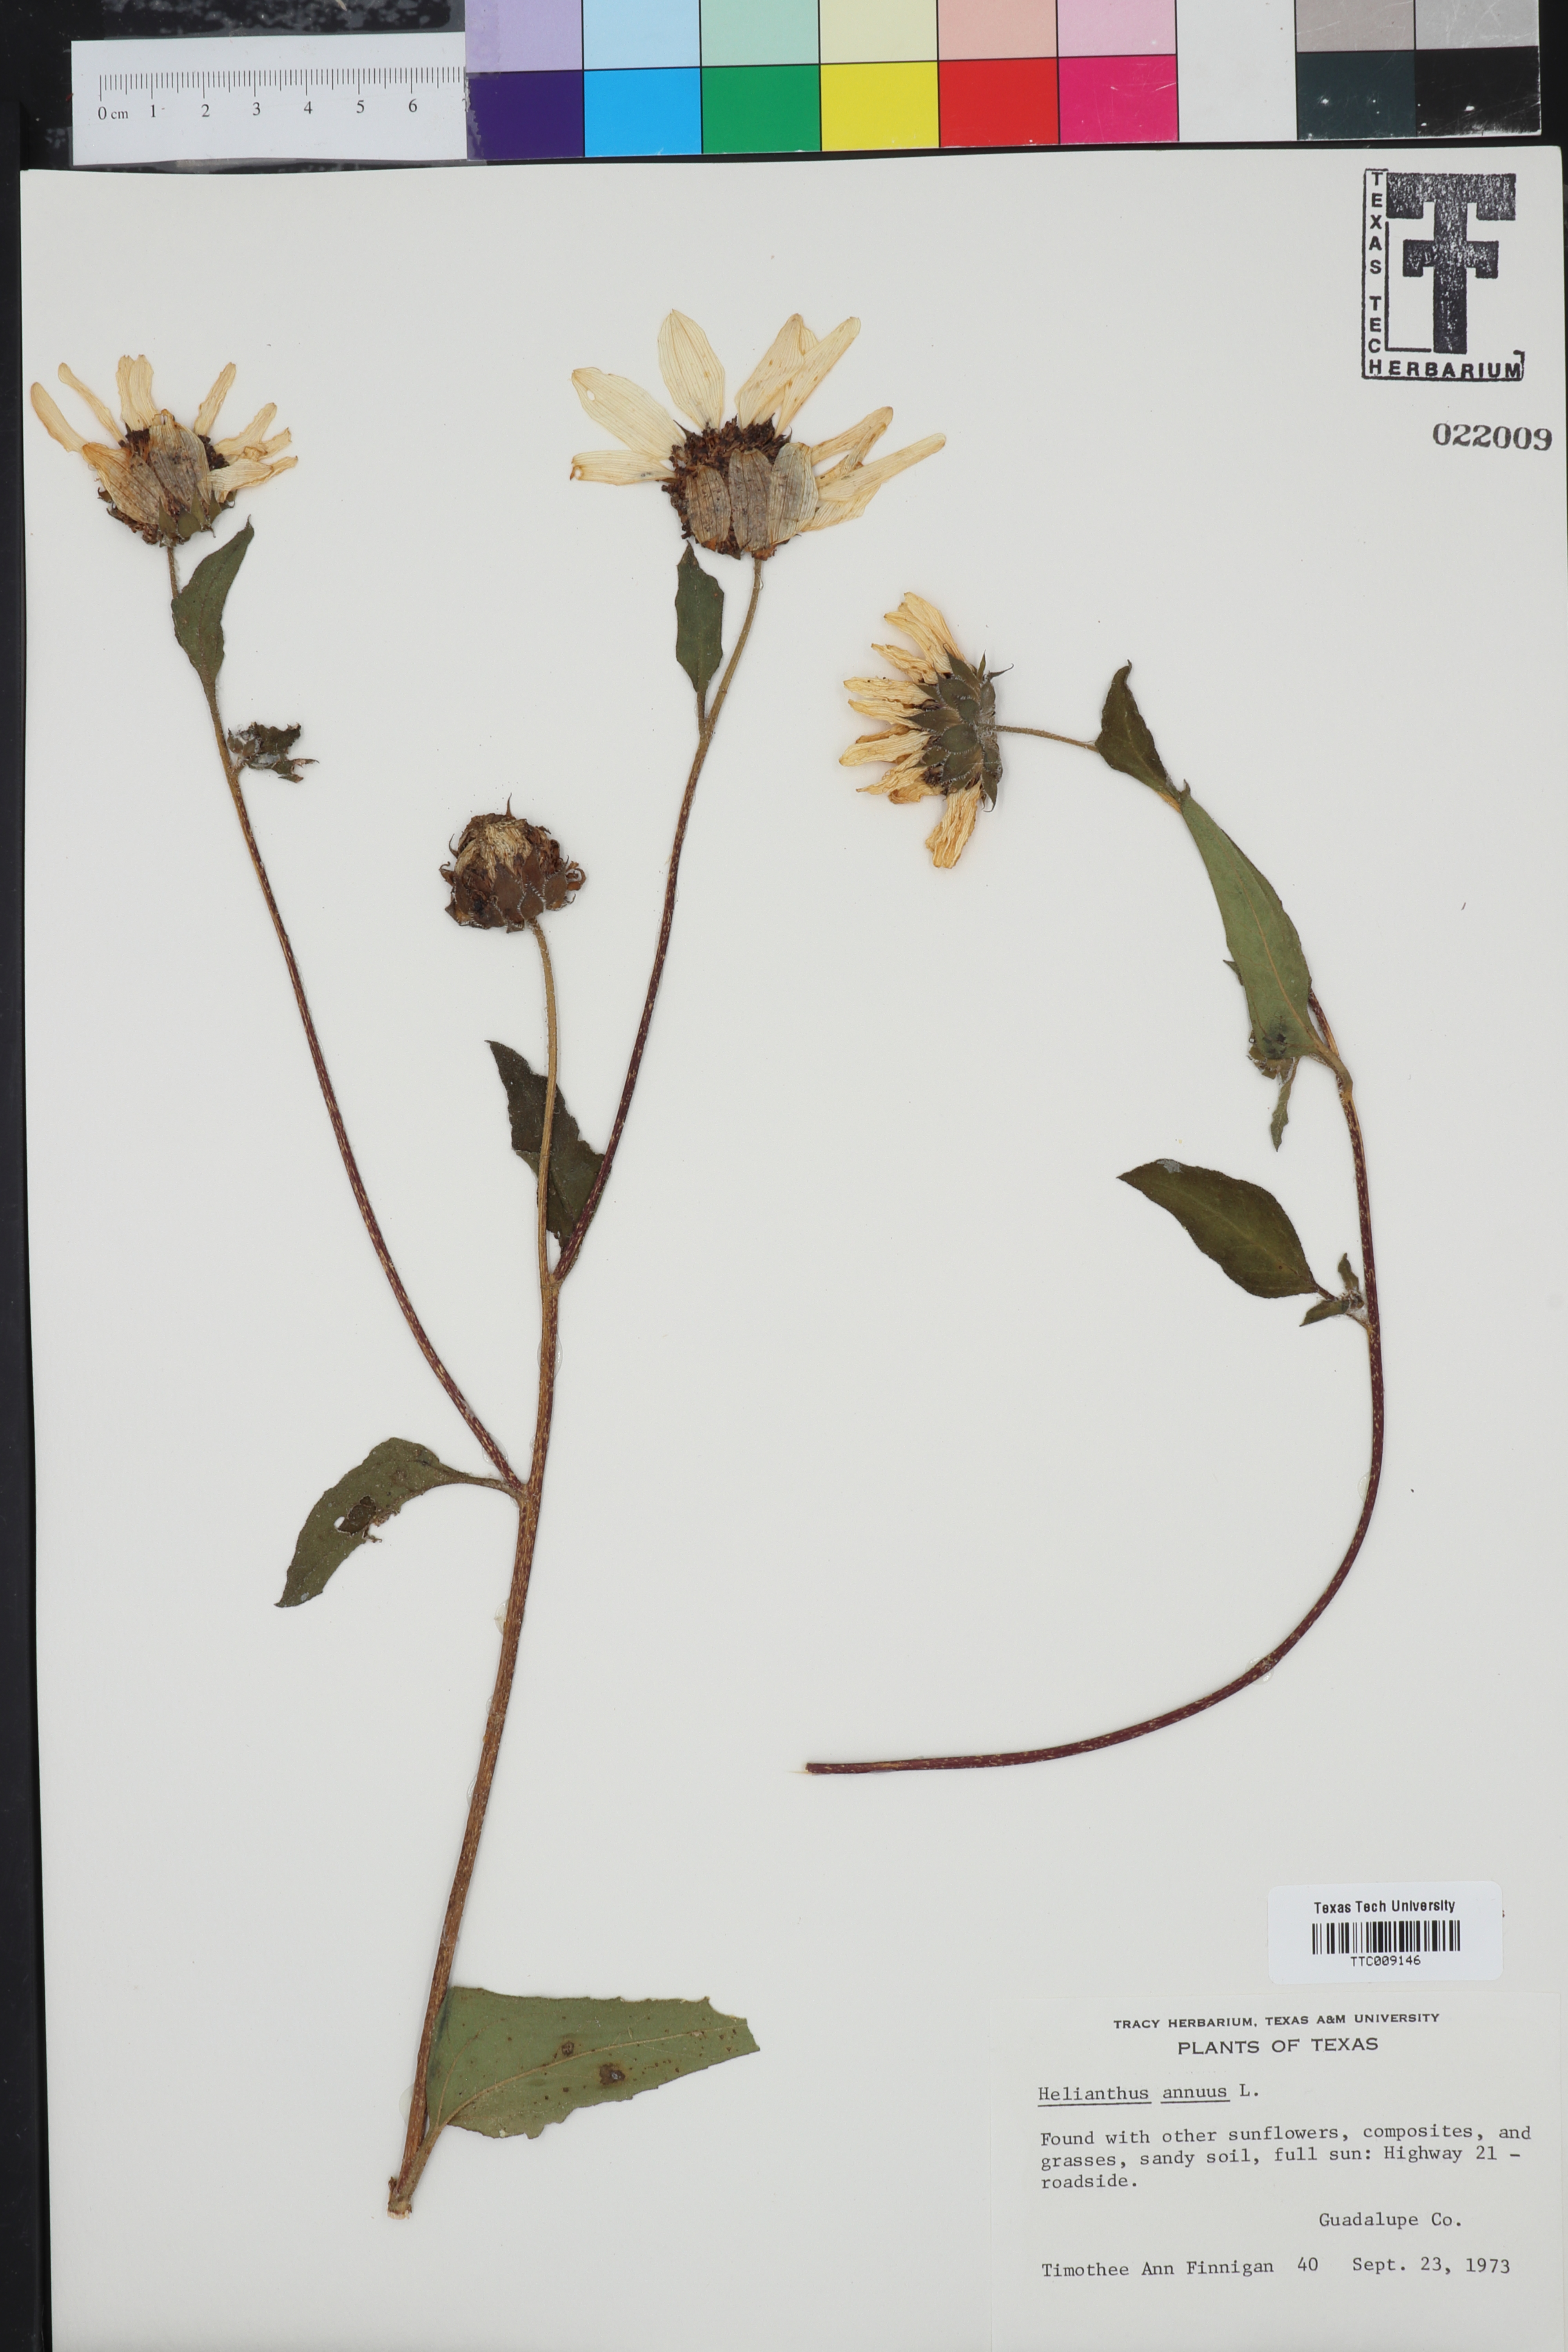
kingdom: Plantae
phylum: Tracheophyta
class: Magnoliopsida
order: Asterales
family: Asteraceae
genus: Helianthus
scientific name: Helianthus annuus
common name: Sunflower
